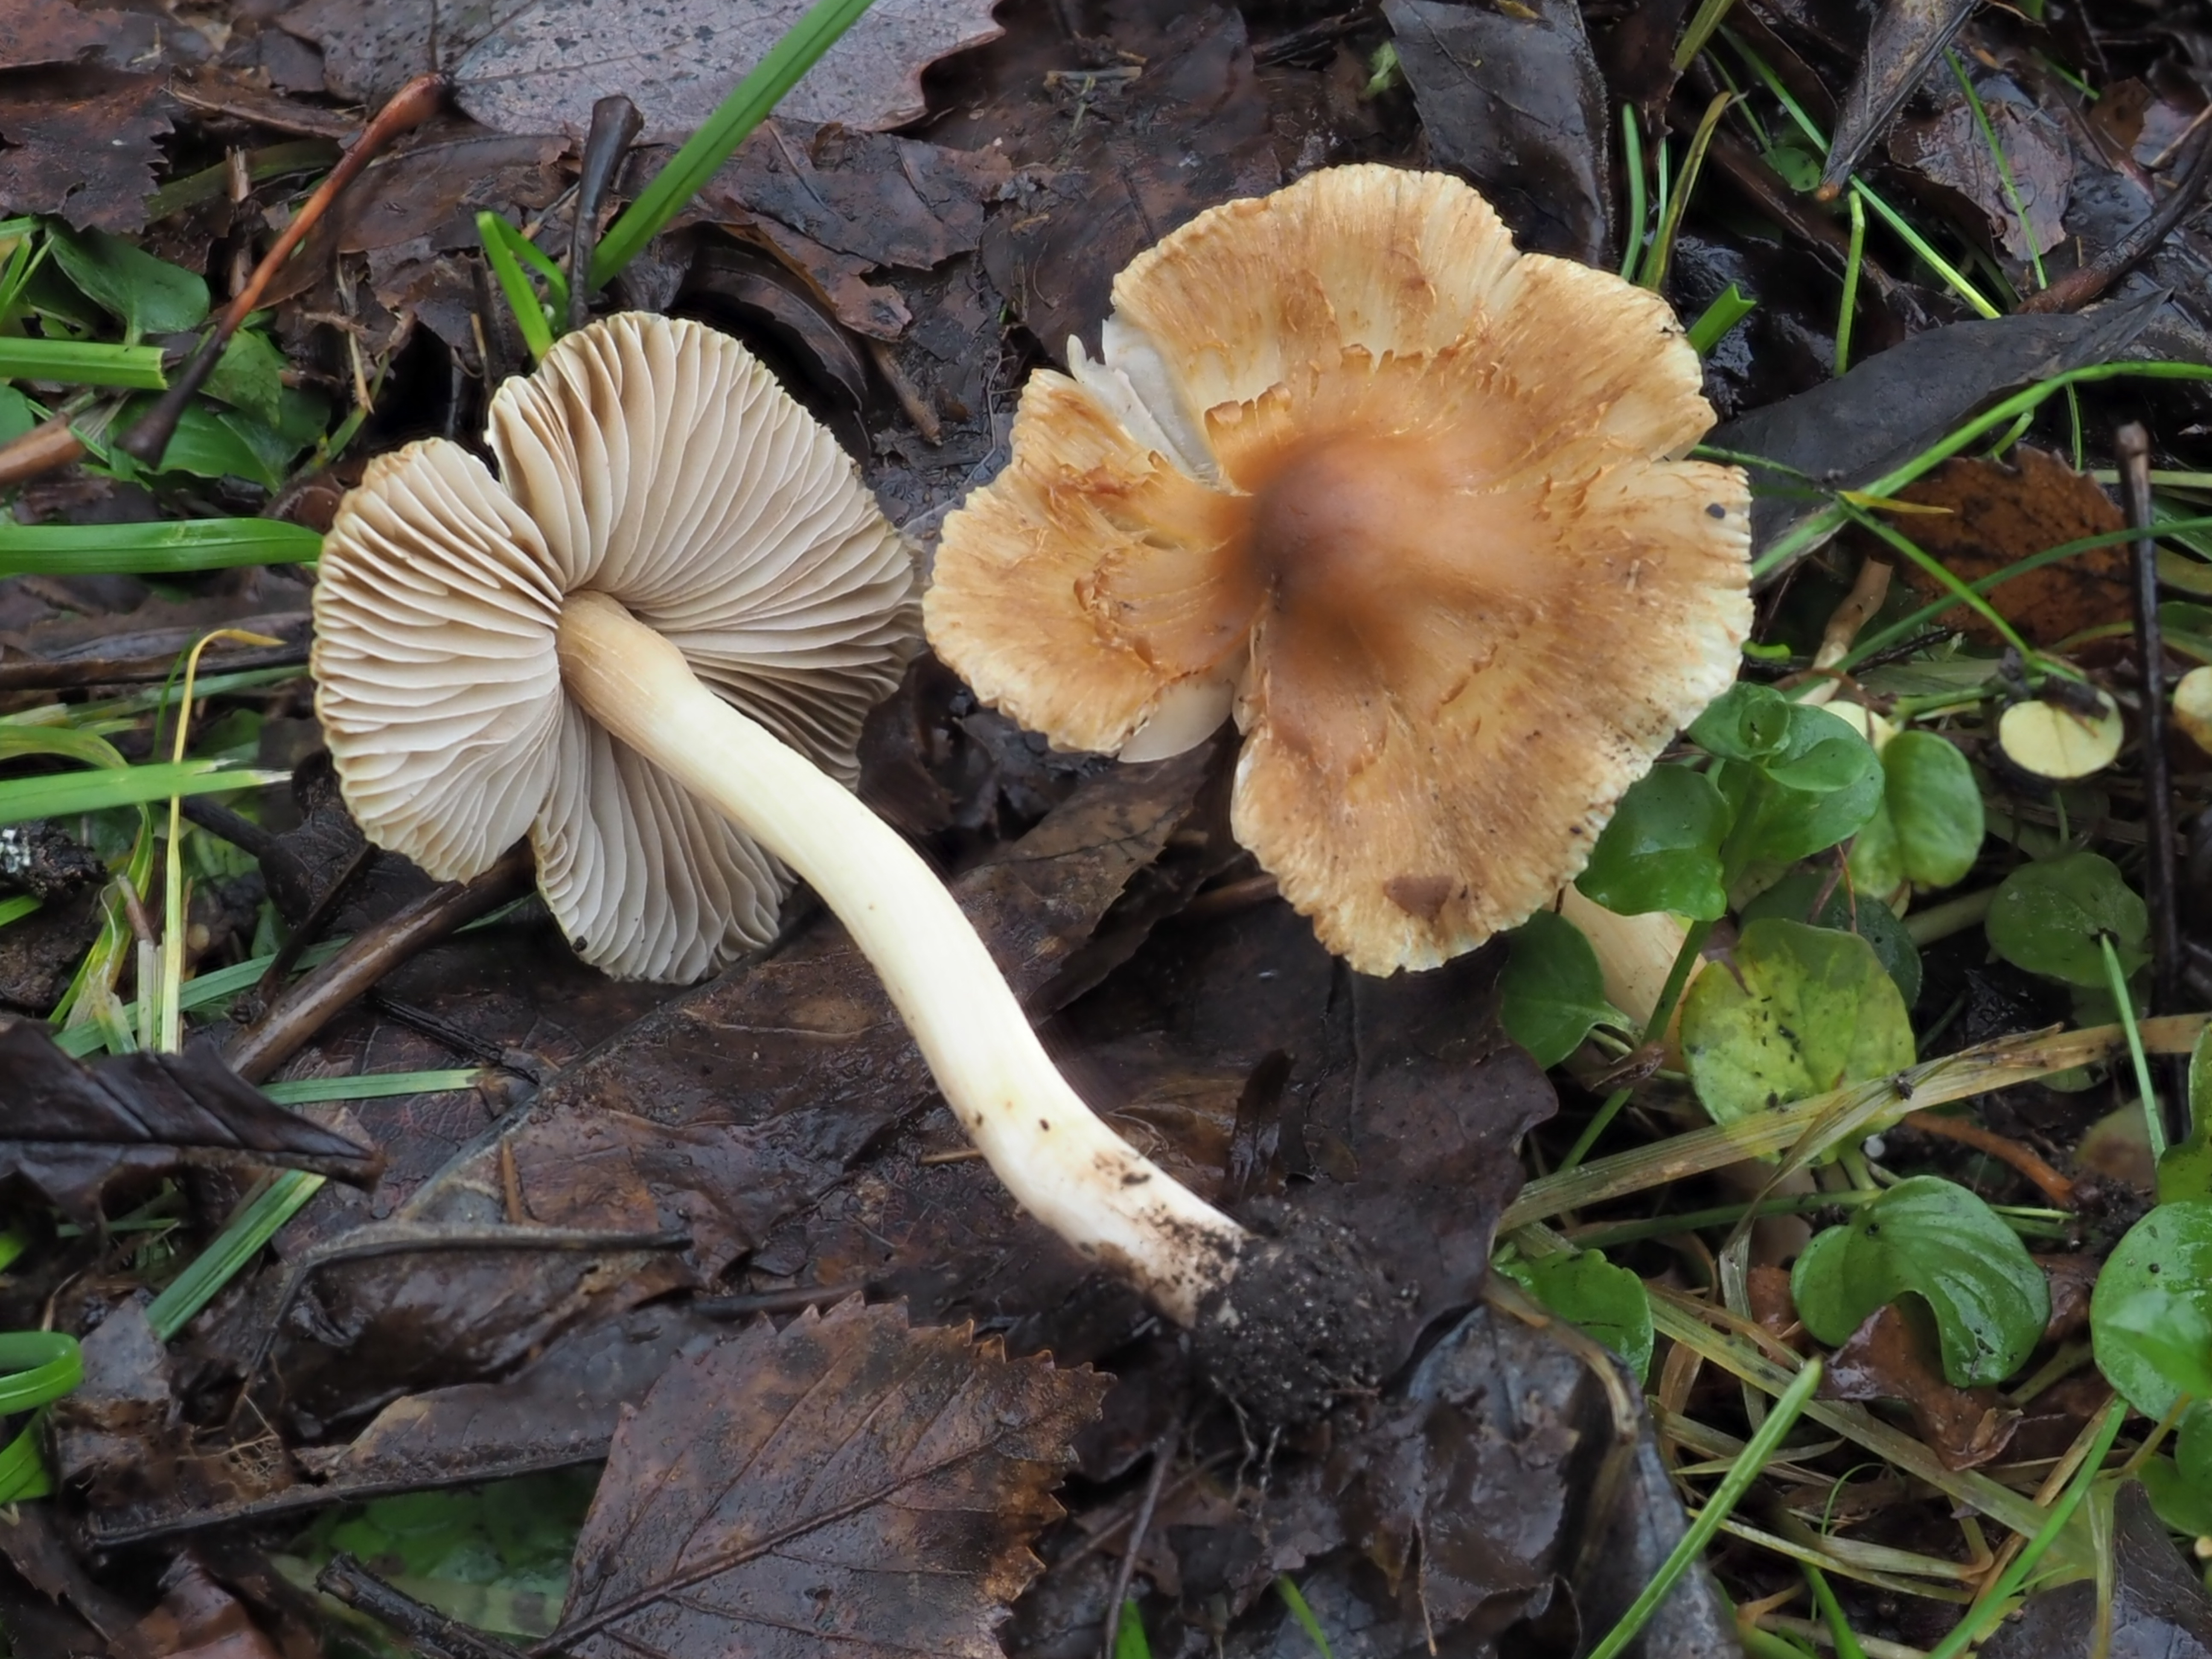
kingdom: Fungi
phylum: Basidiomycota
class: Agaricomycetes
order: Agaricales
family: Inocybaceae
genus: Inocybe
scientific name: Inocybe subrimosa
